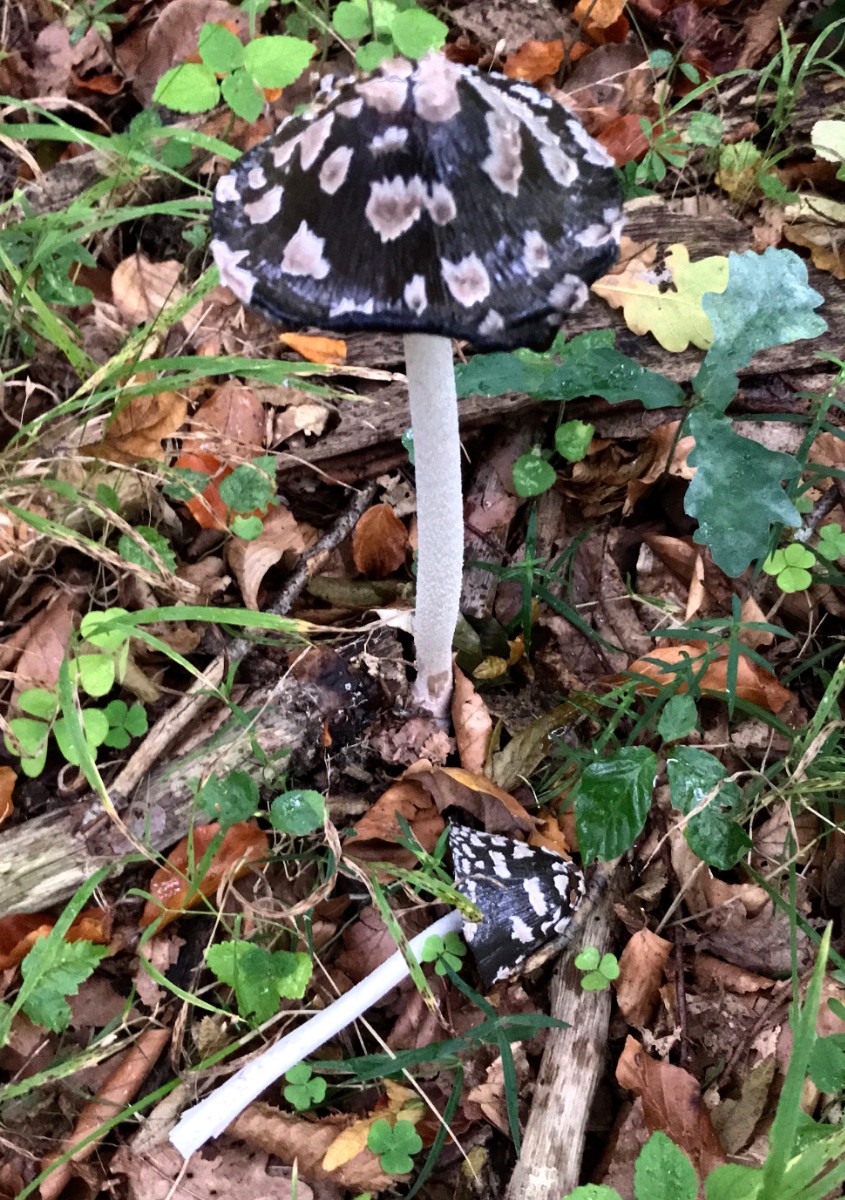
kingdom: Fungi
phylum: Basidiomycota
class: Agaricomycetes
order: Agaricales
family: Psathyrellaceae
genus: Coprinopsis
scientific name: Coprinopsis picacea
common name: skade-blækhat
